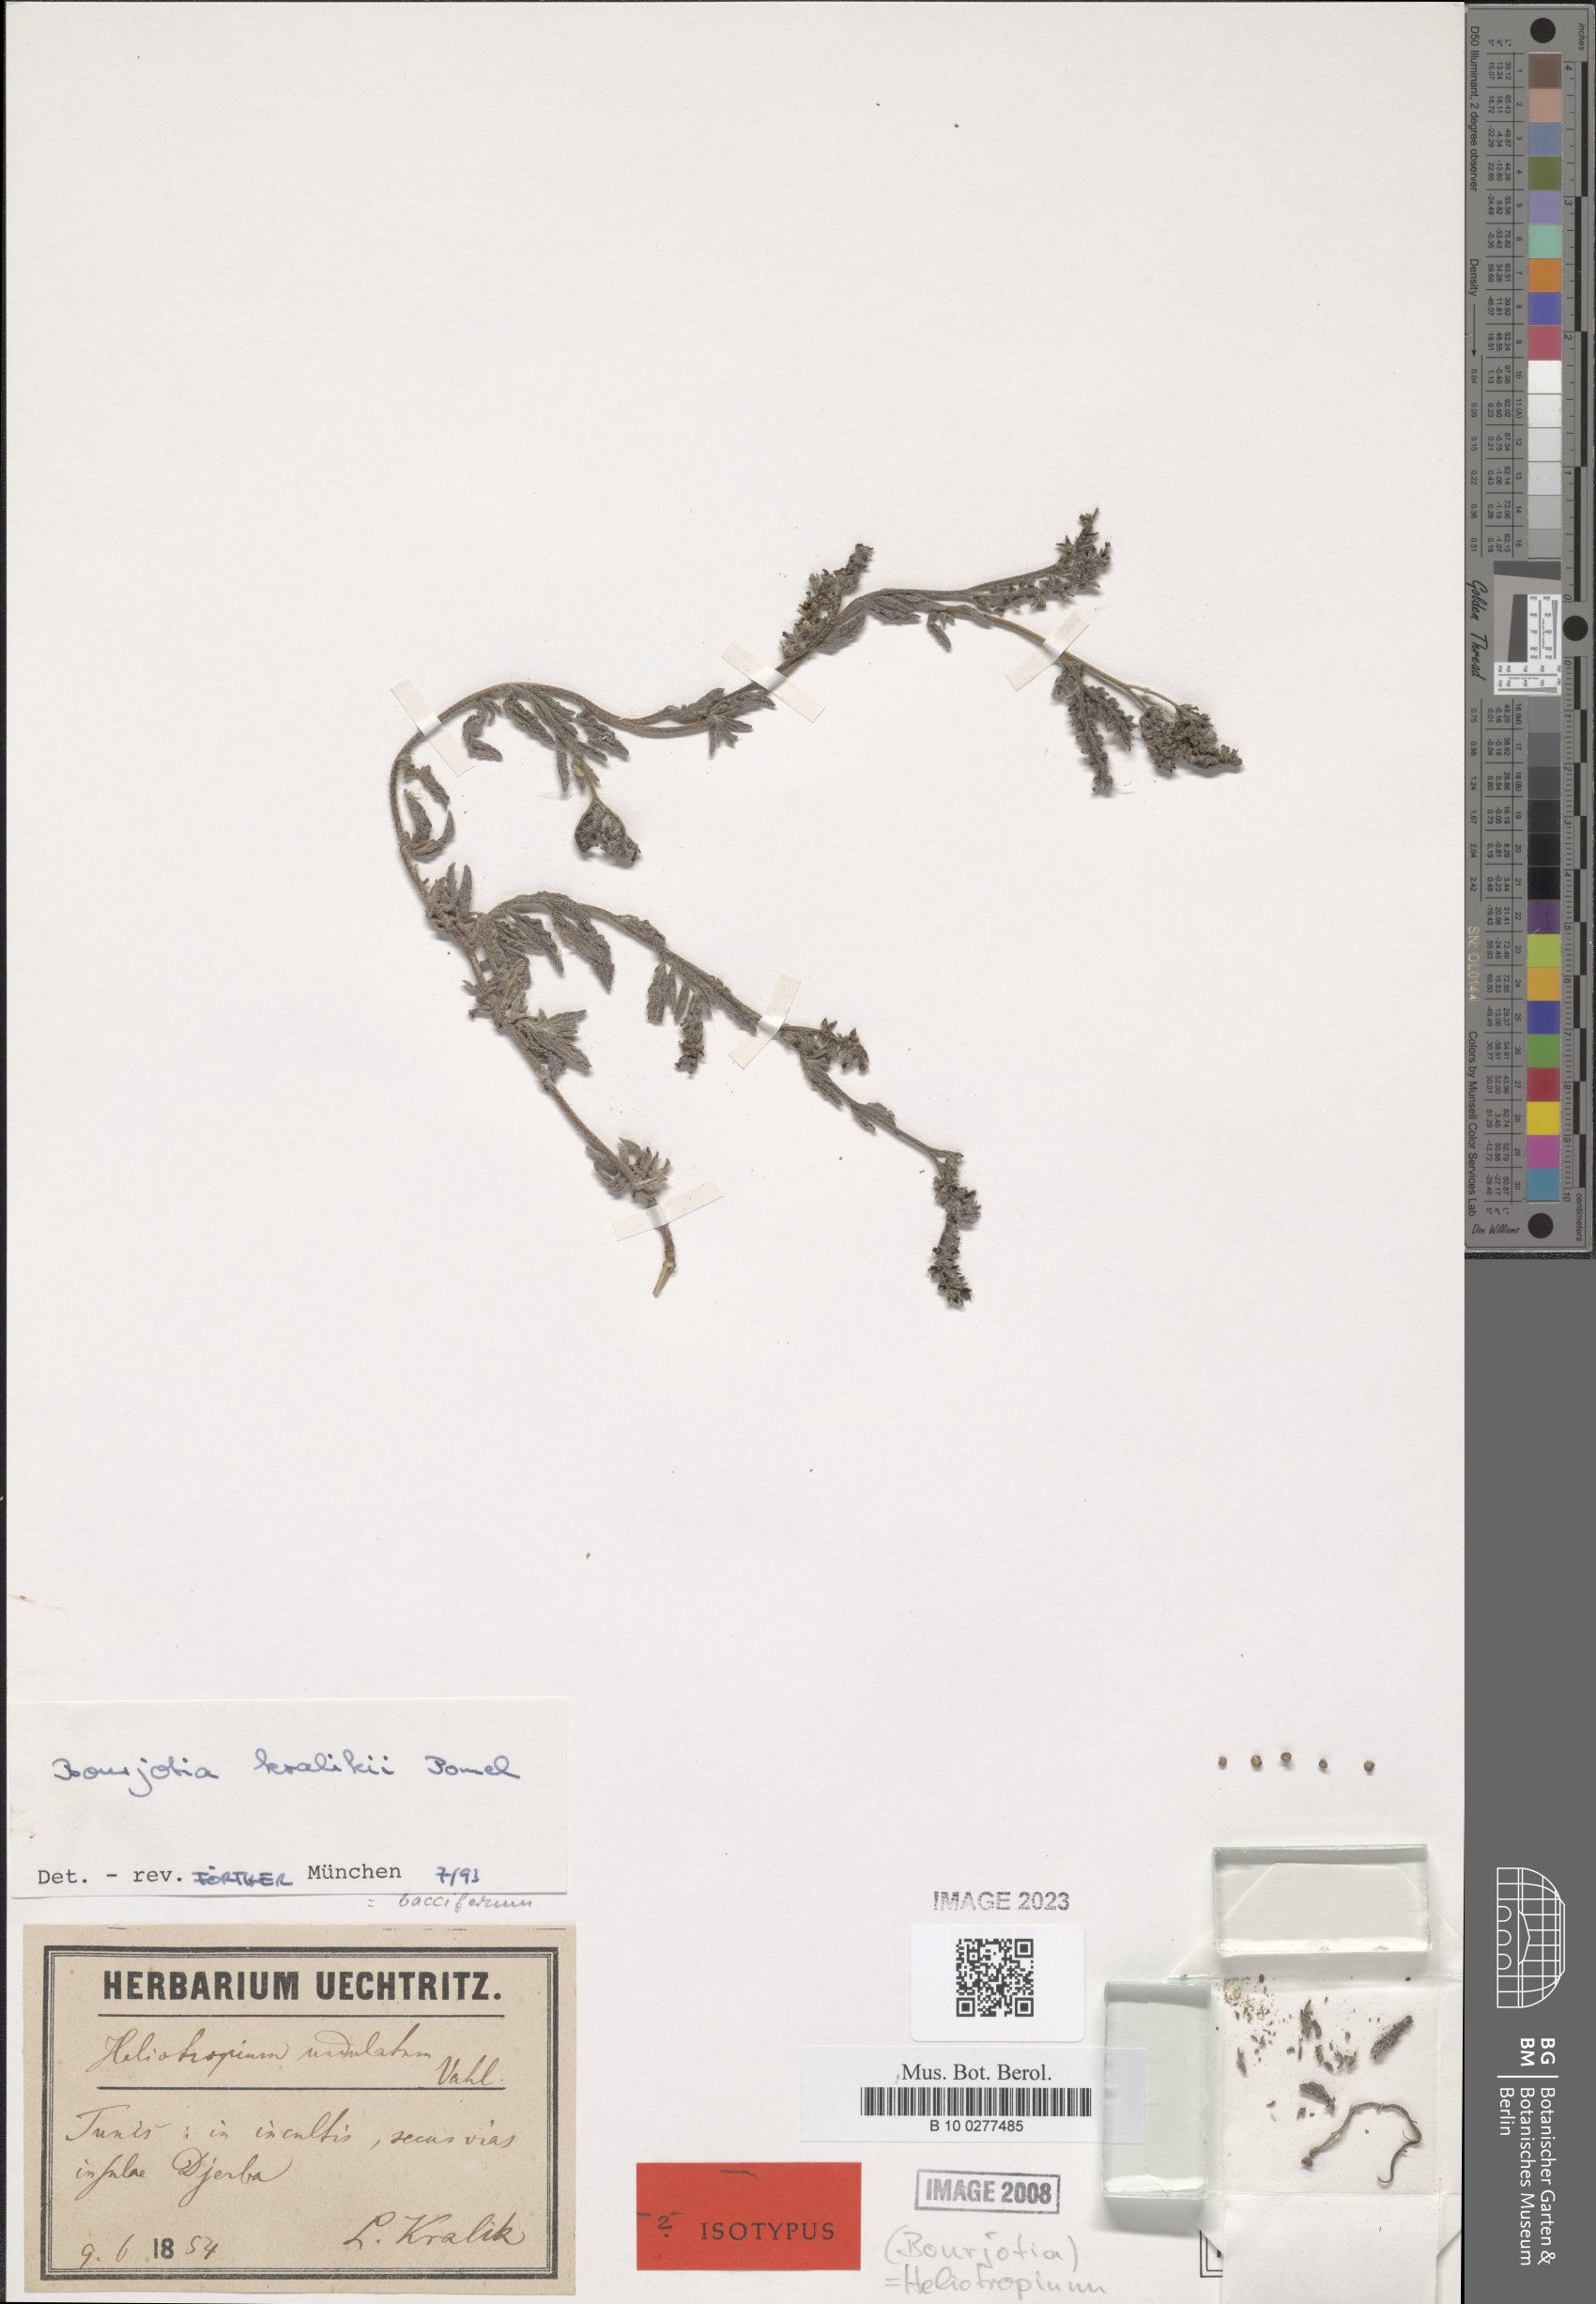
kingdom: Plantae
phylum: Tracheophyta
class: Magnoliopsida
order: Boraginales
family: Heliotropiaceae
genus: Heliotropium
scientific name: Heliotropium crispum
